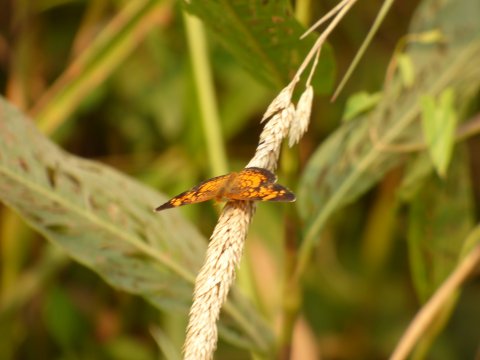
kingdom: Animalia
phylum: Arthropoda
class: Insecta
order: Lepidoptera
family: Nymphalidae
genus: Phyciodes
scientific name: Phyciodes tharos
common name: Pearl Crescent
